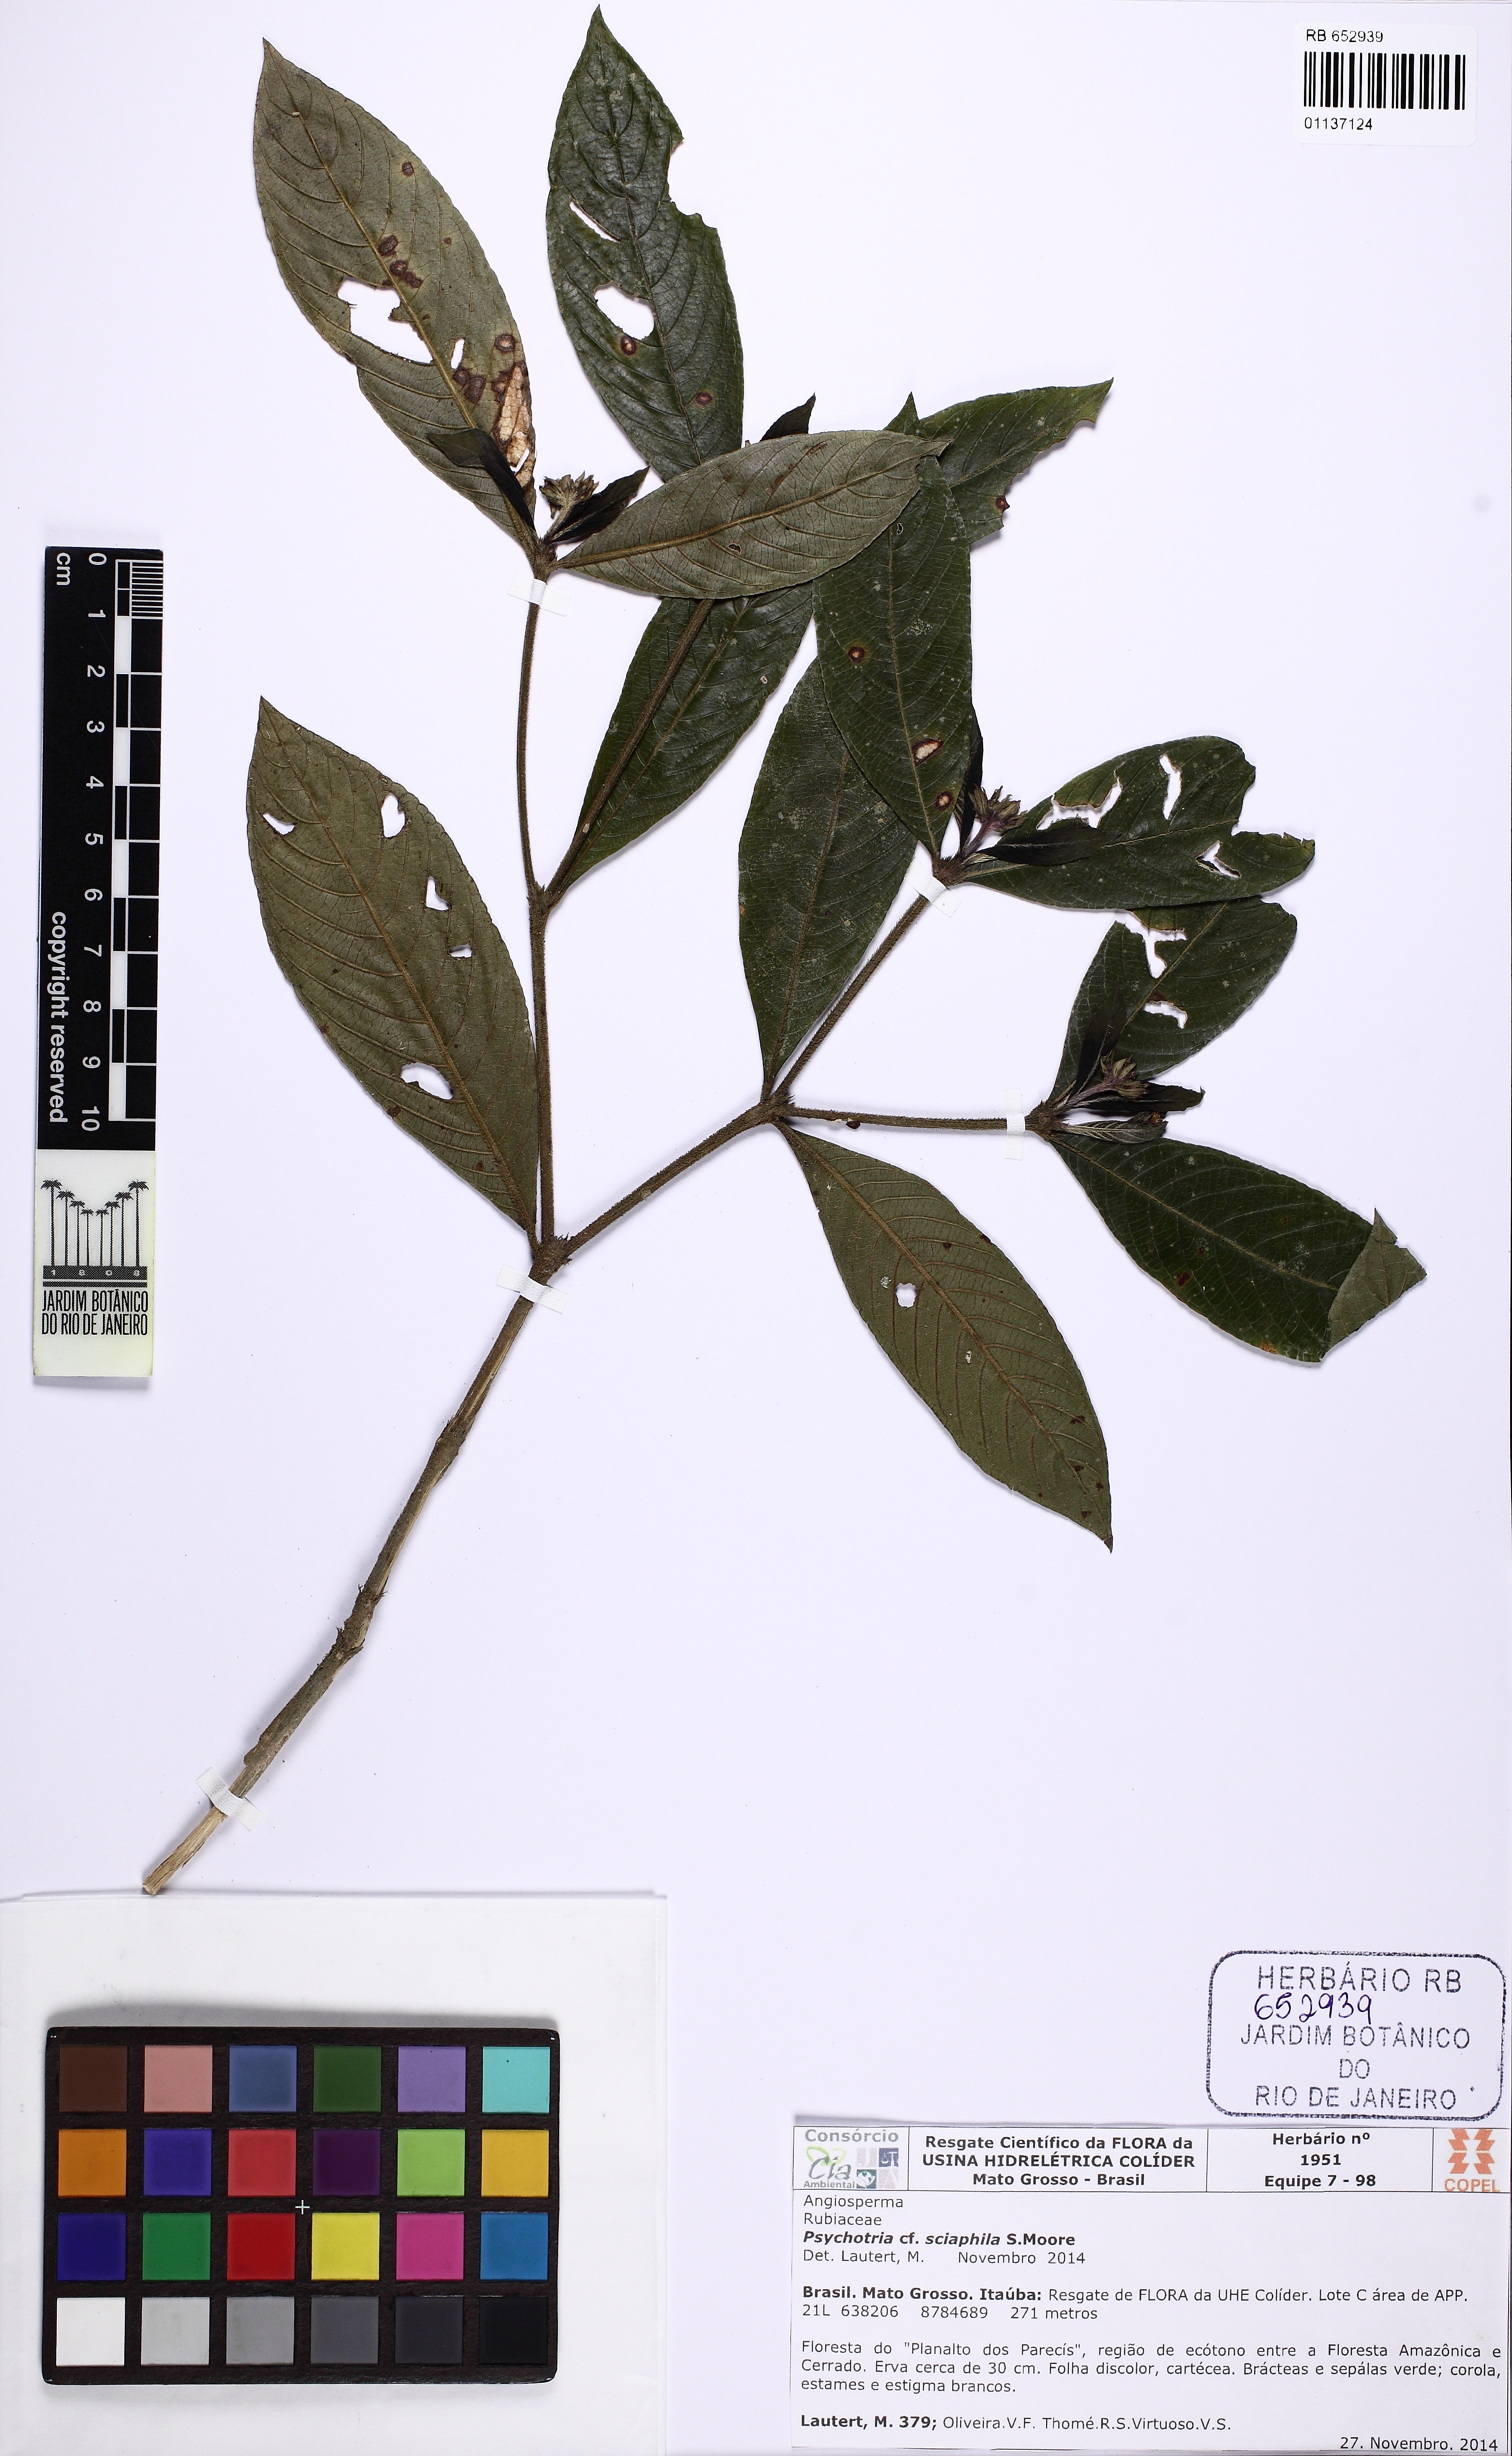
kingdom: Plantae
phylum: Tracheophyta
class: Magnoliopsida
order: Gentianales
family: Rubiaceae
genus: Palicourea
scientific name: Palicourea trichophora
